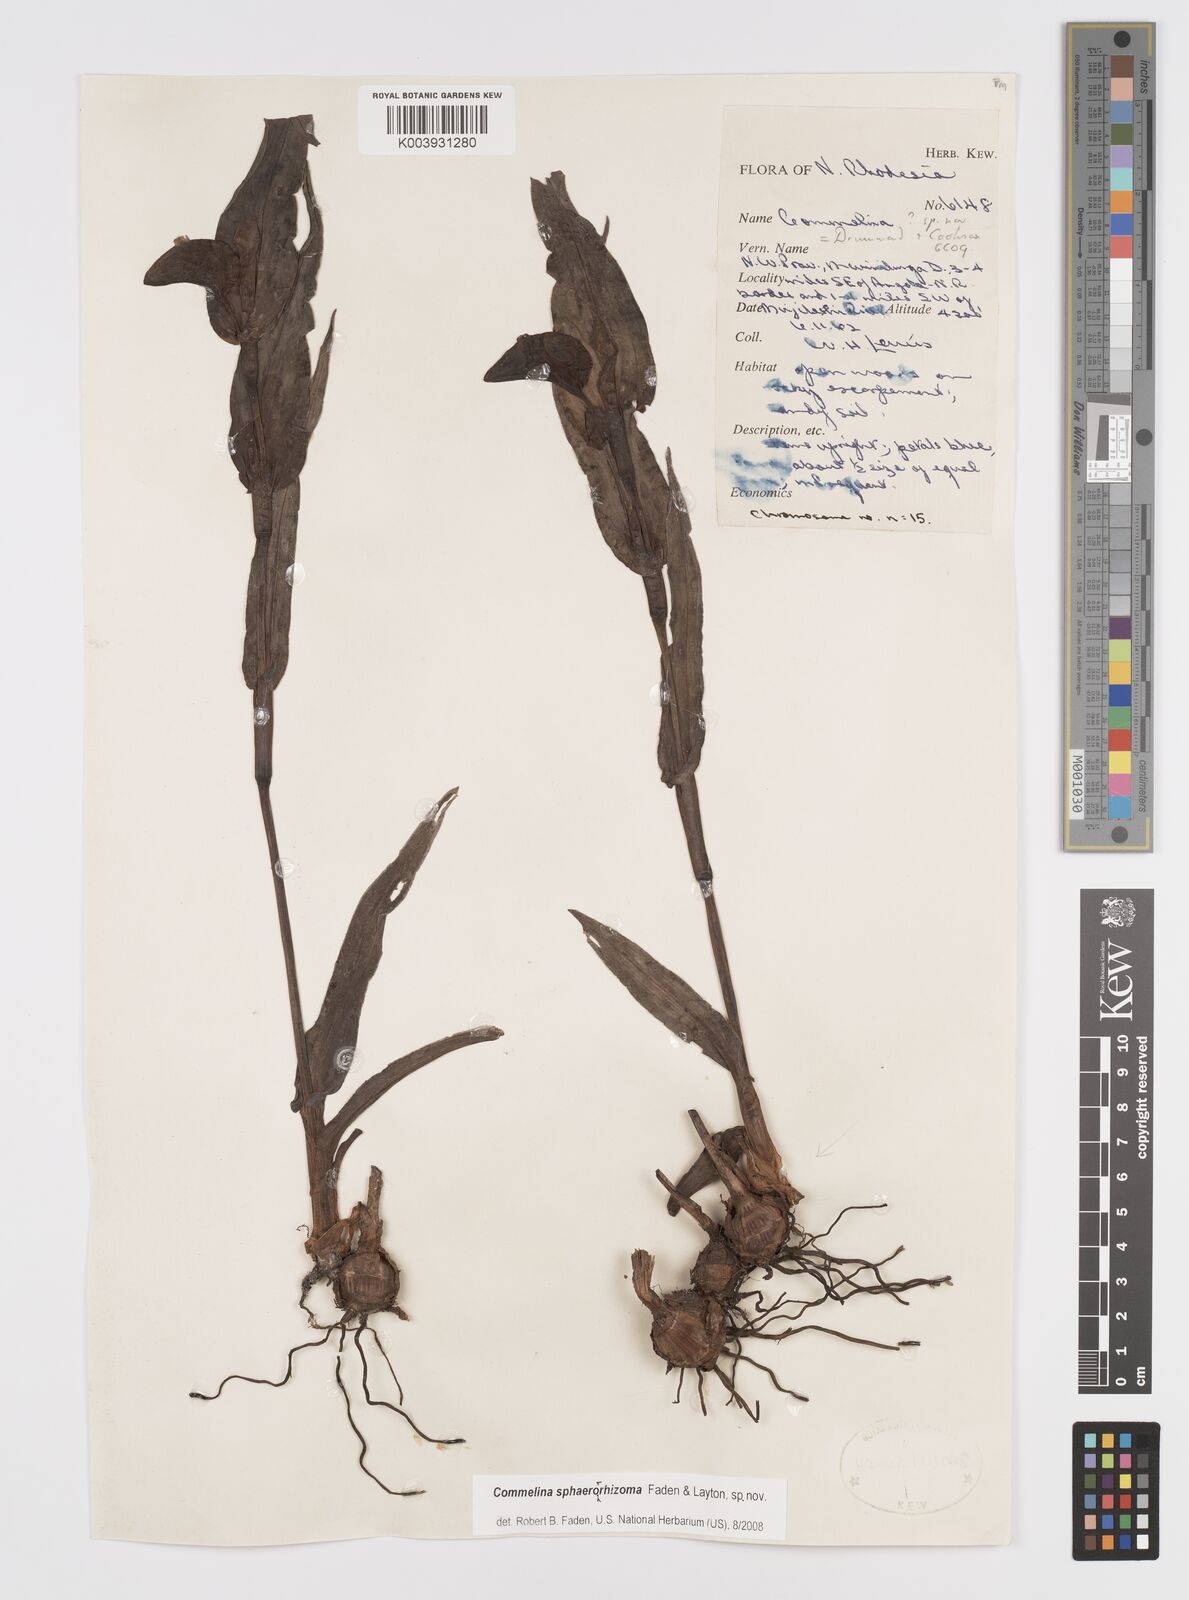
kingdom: Plantae
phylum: Tracheophyta
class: Liliopsida
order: Commelinales
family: Commelinaceae
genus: Commelina
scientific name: Commelina sphaerorrhizoma
